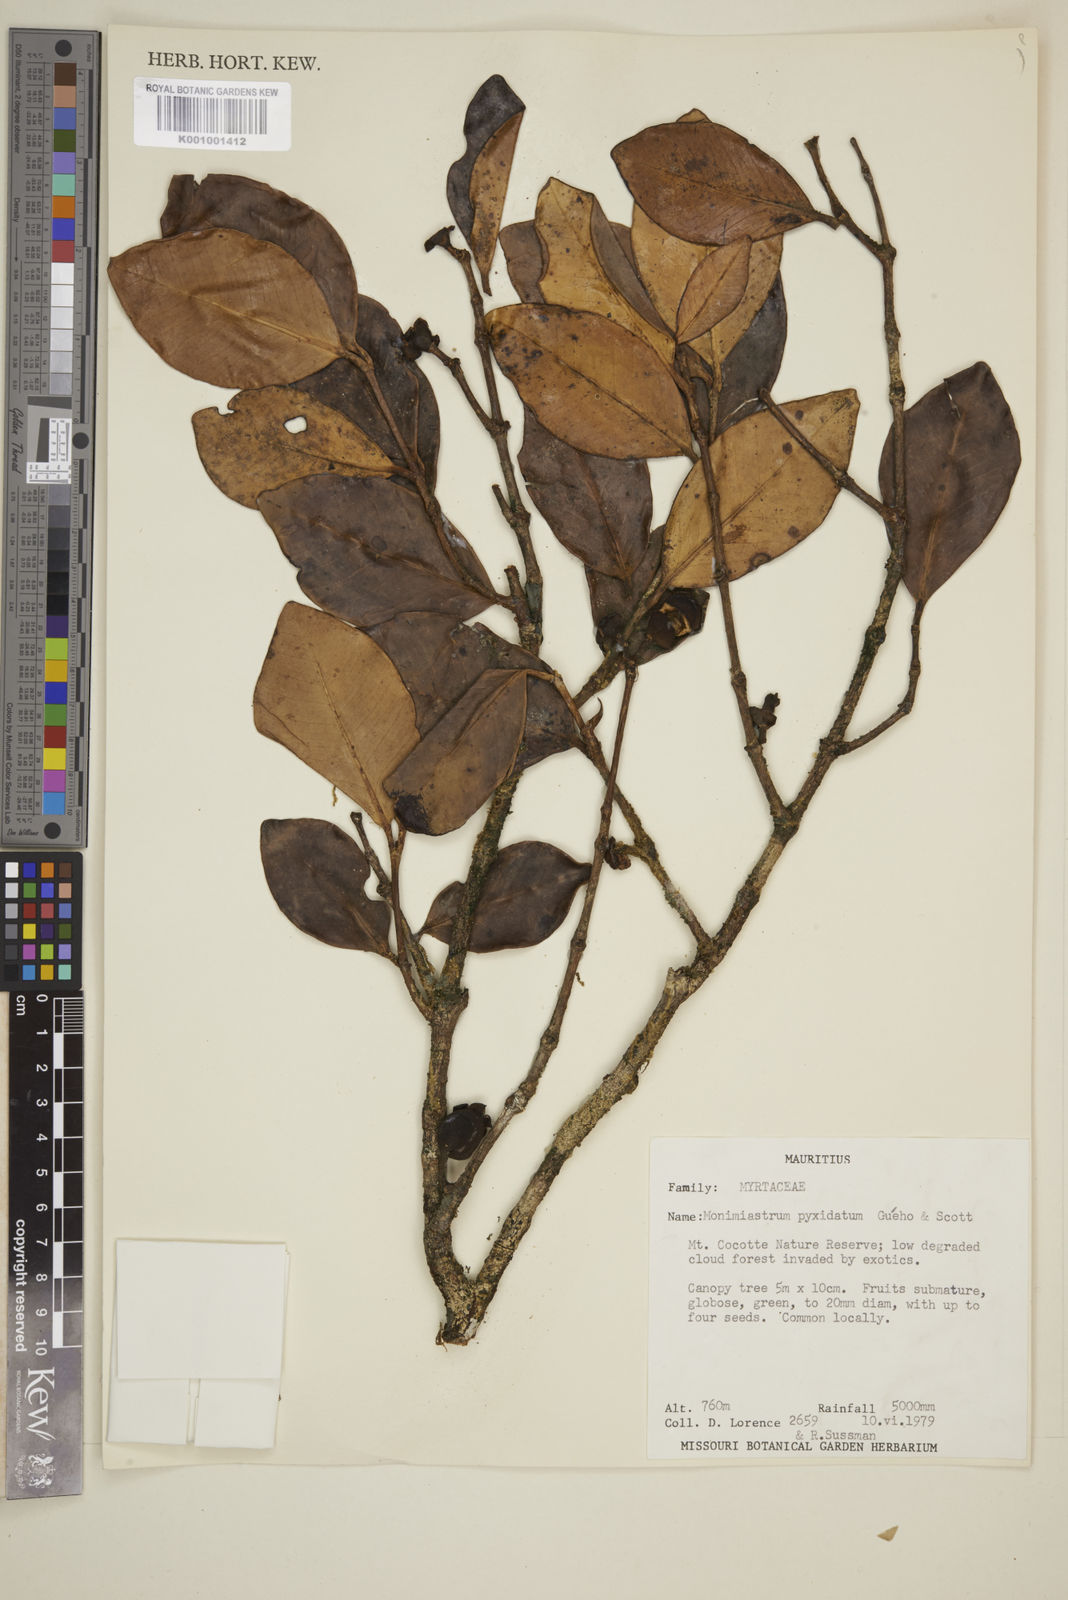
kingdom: Plantae
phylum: Tracheophyta
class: Magnoliopsida
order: Myrtales
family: Myrtaceae
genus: Eugenia
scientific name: Eugenia pyxidata
